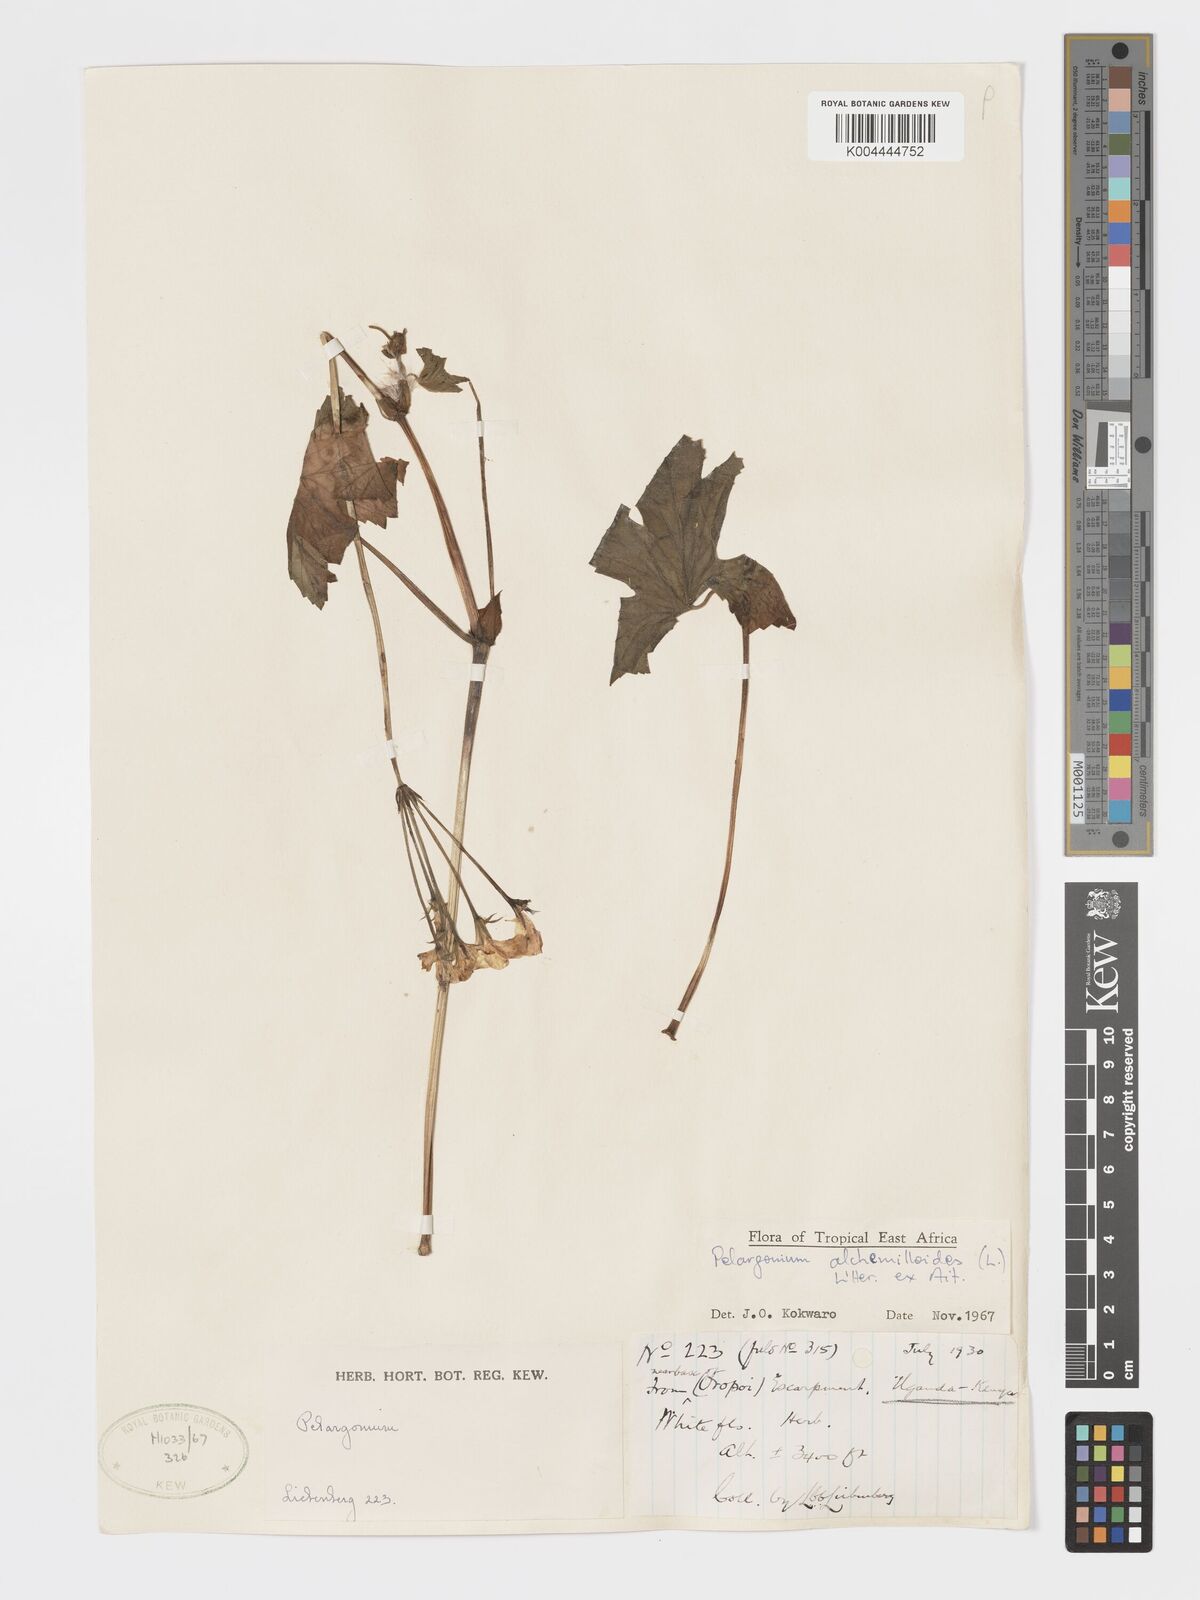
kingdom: Plantae
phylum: Tracheophyta
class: Magnoliopsida
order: Geraniales
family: Geraniaceae
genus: Pelargonium
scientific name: Pelargonium alchemilloides
